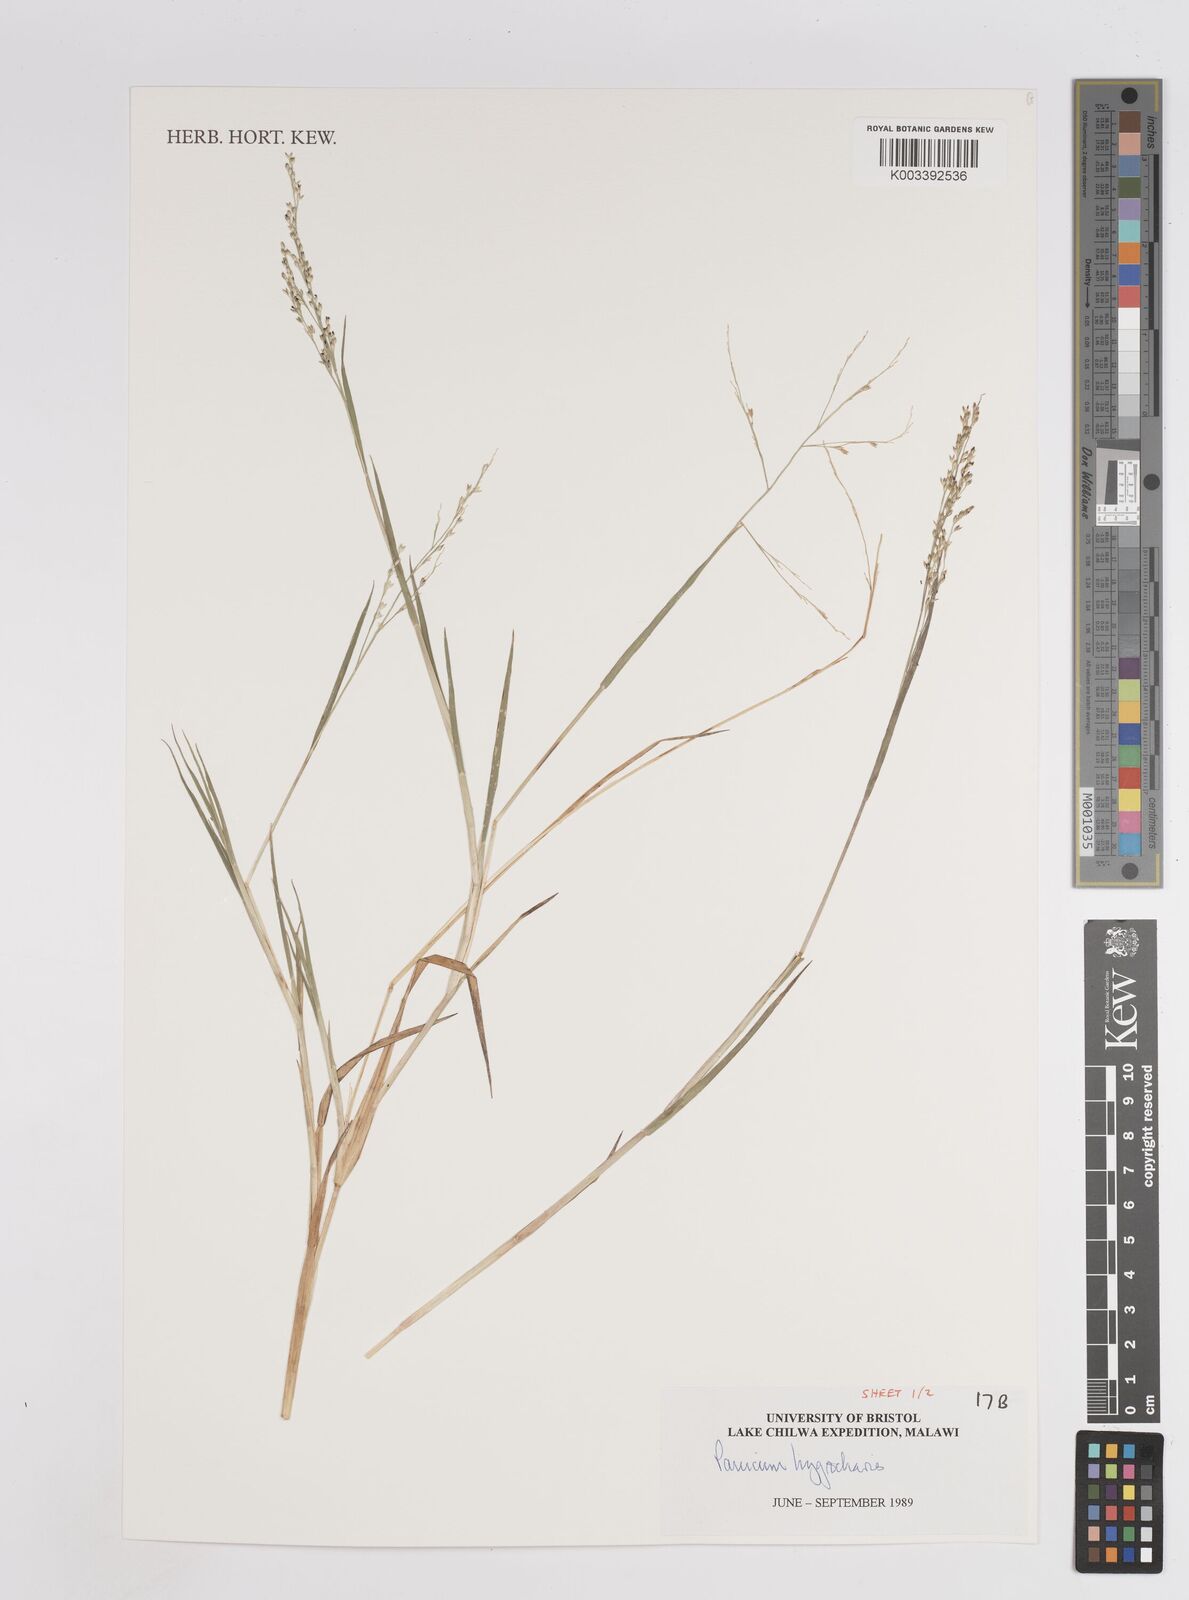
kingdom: Plantae
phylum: Tracheophyta
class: Liliopsida
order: Poales
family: Poaceae
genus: Panicum
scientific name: Panicum hygrocharis
